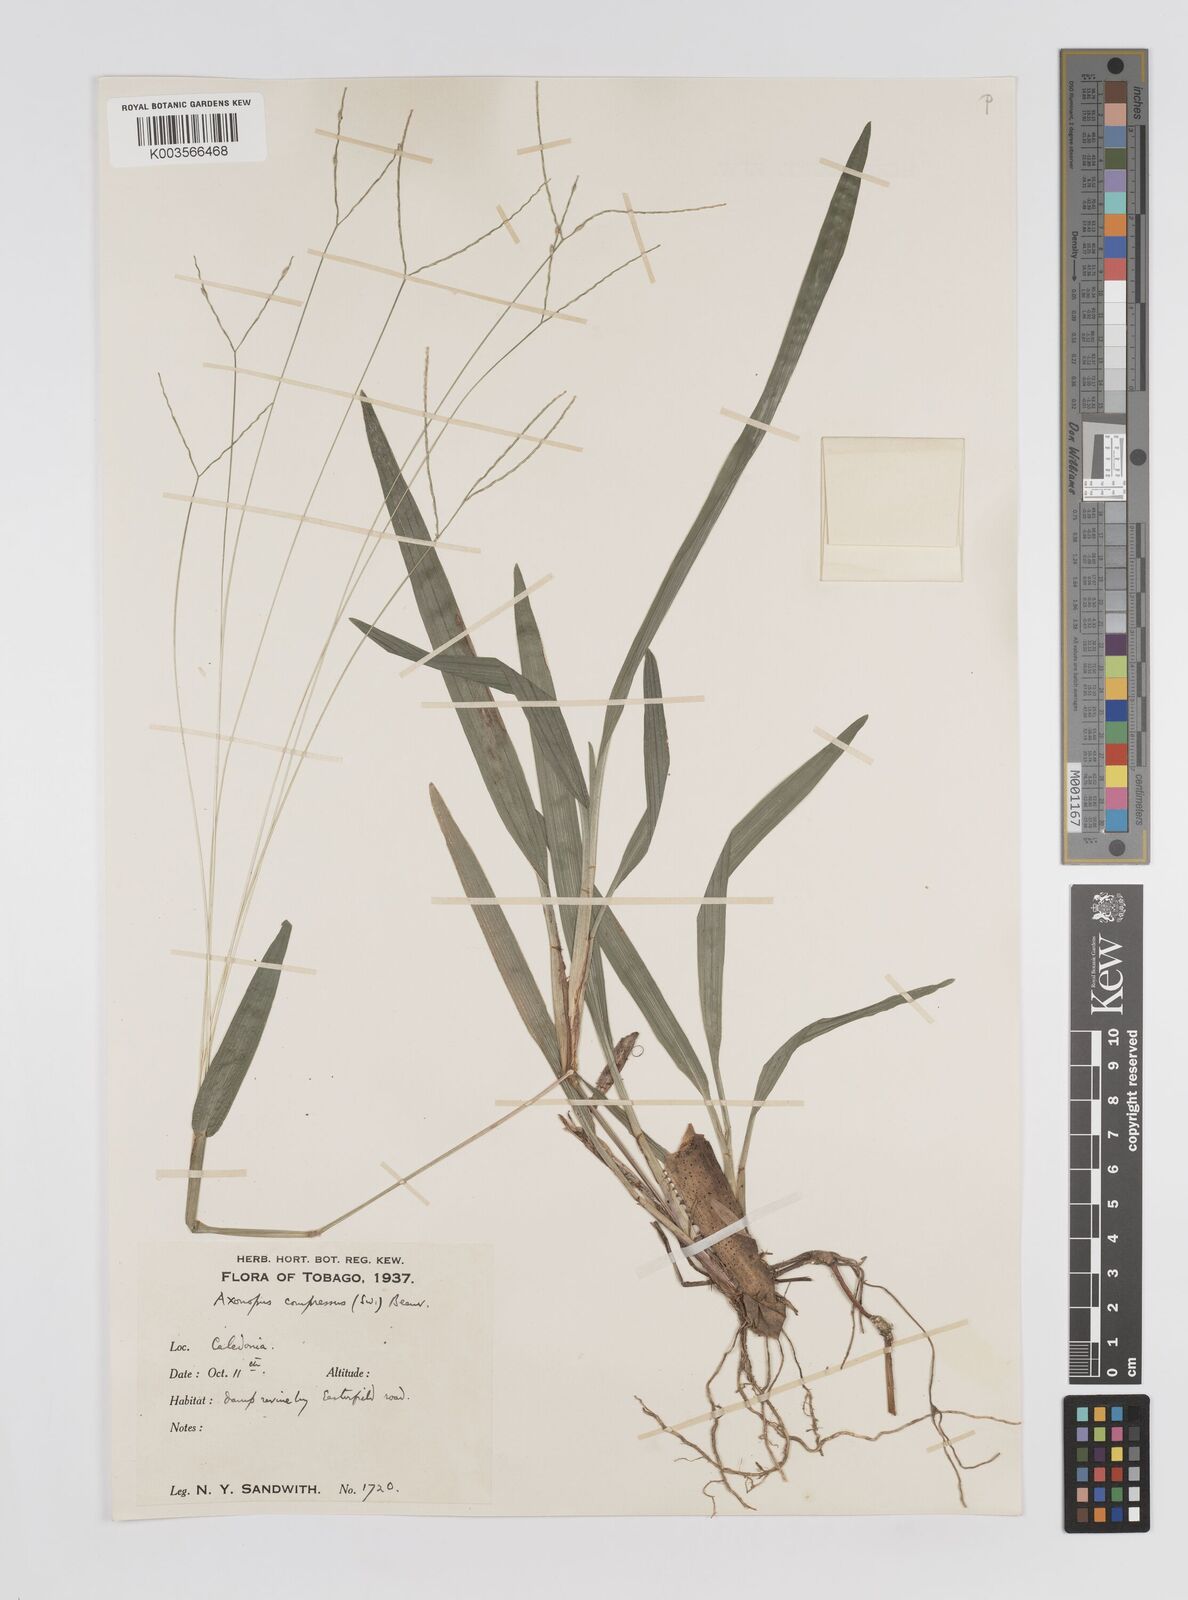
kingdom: Plantae
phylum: Tracheophyta
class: Liliopsida
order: Poales
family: Poaceae
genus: Axonopus
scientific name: Axonopus compressus
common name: American carpet grass
